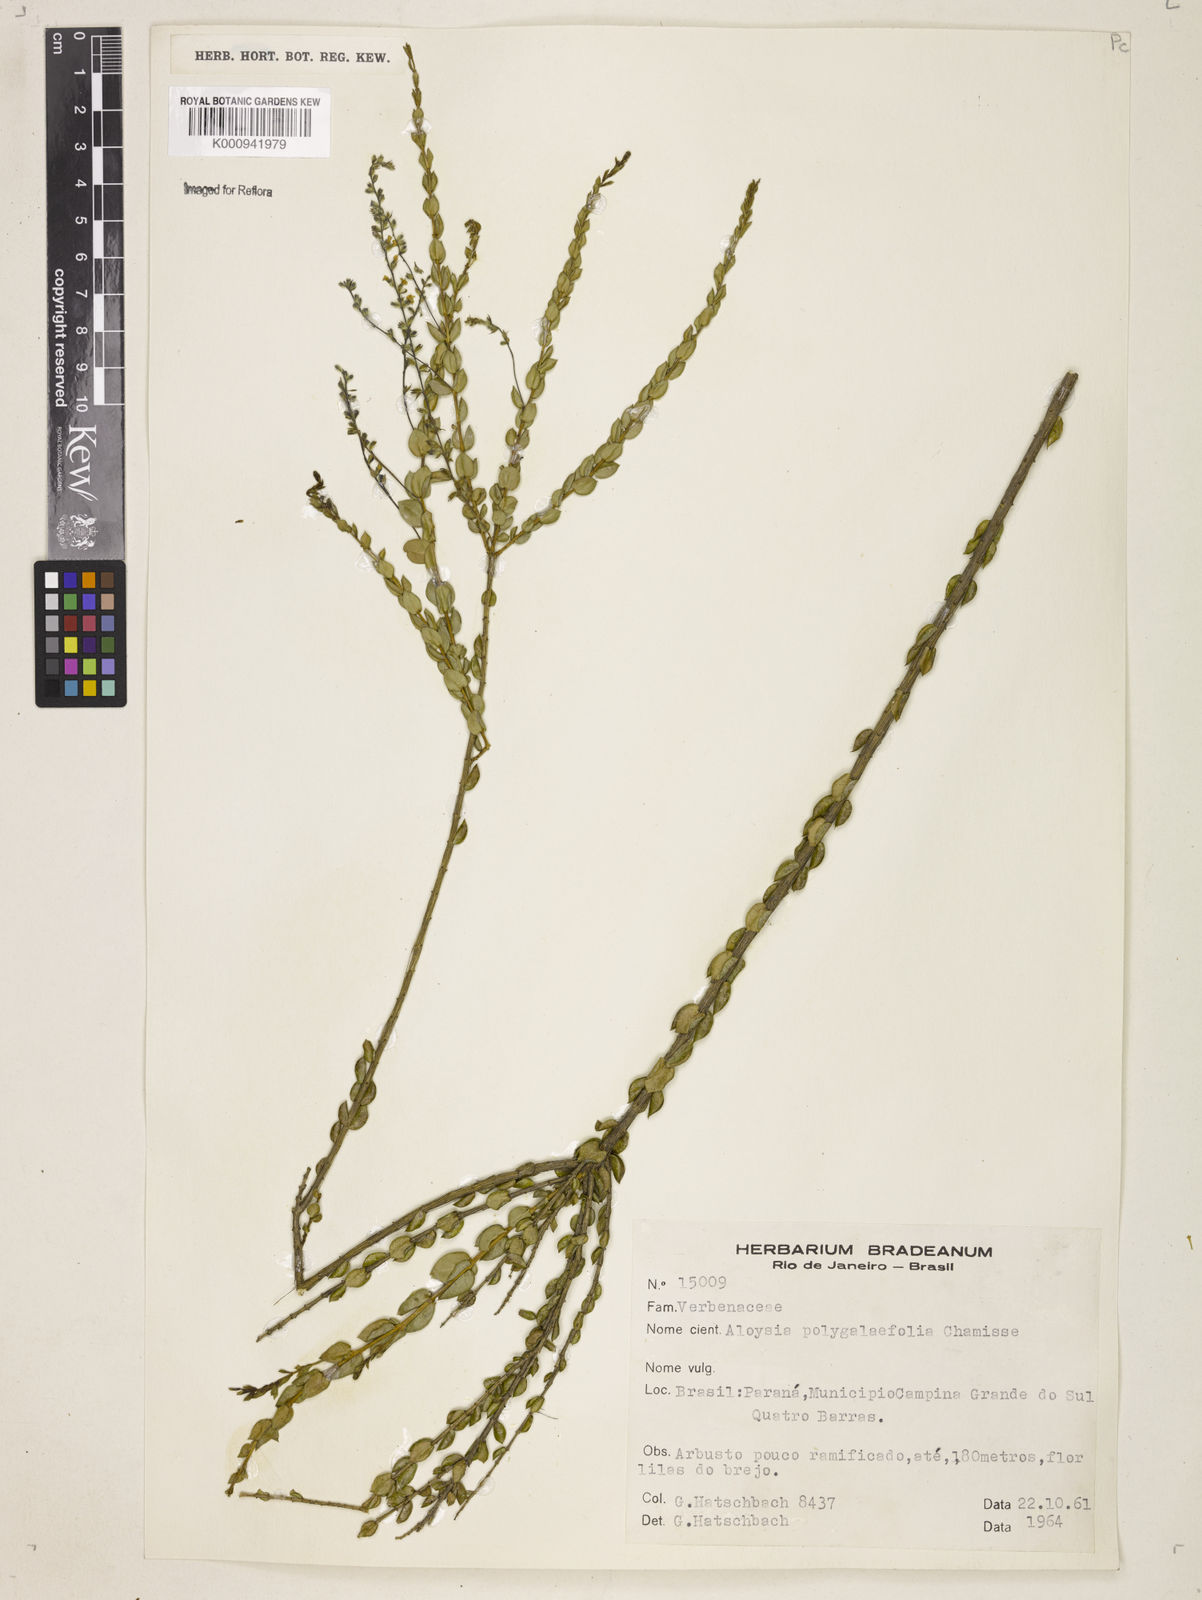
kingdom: Plantae
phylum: Tracheophyta
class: Magnoliopsida
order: Lamiales
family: Verbenaceae
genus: Aloysia
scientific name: Aloysia polygalifolia
